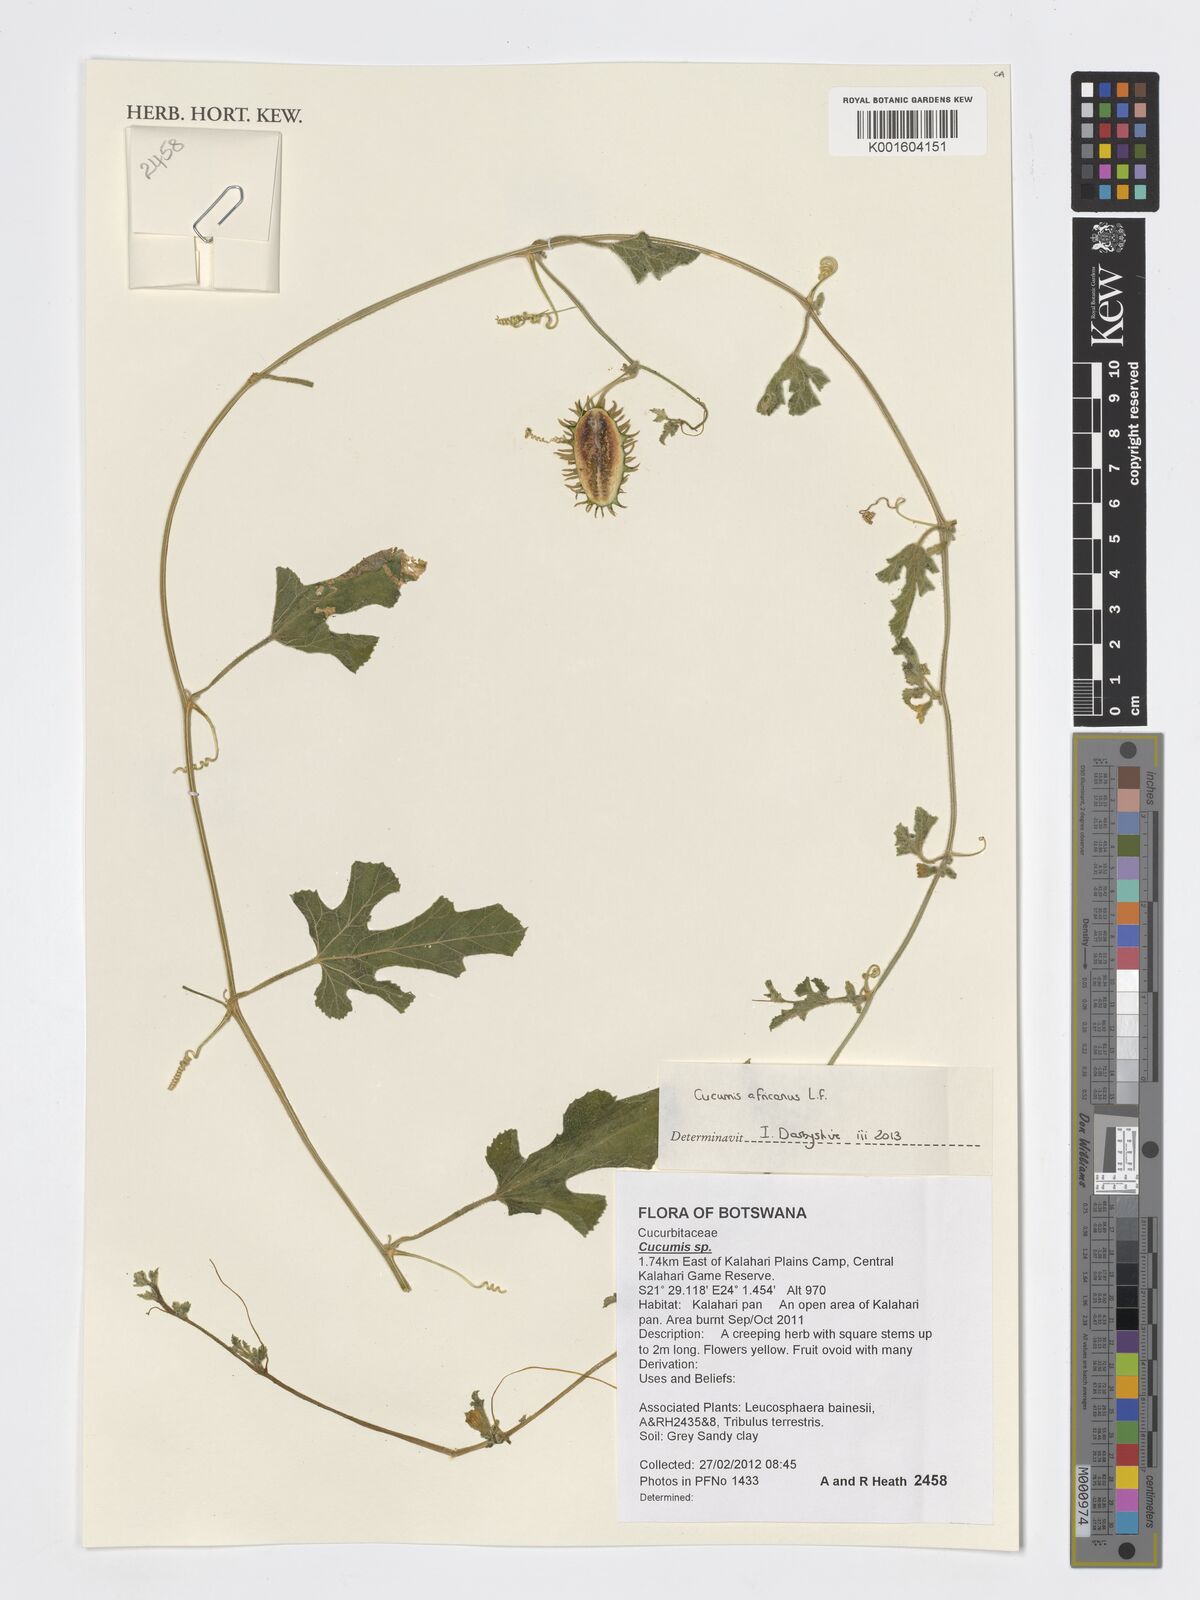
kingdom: Plantae
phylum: Tracheophyta
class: Magnoliopsida
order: Cucurbitales
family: Cucurbitaceae
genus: Cucumis
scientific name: Cucumis africanus
